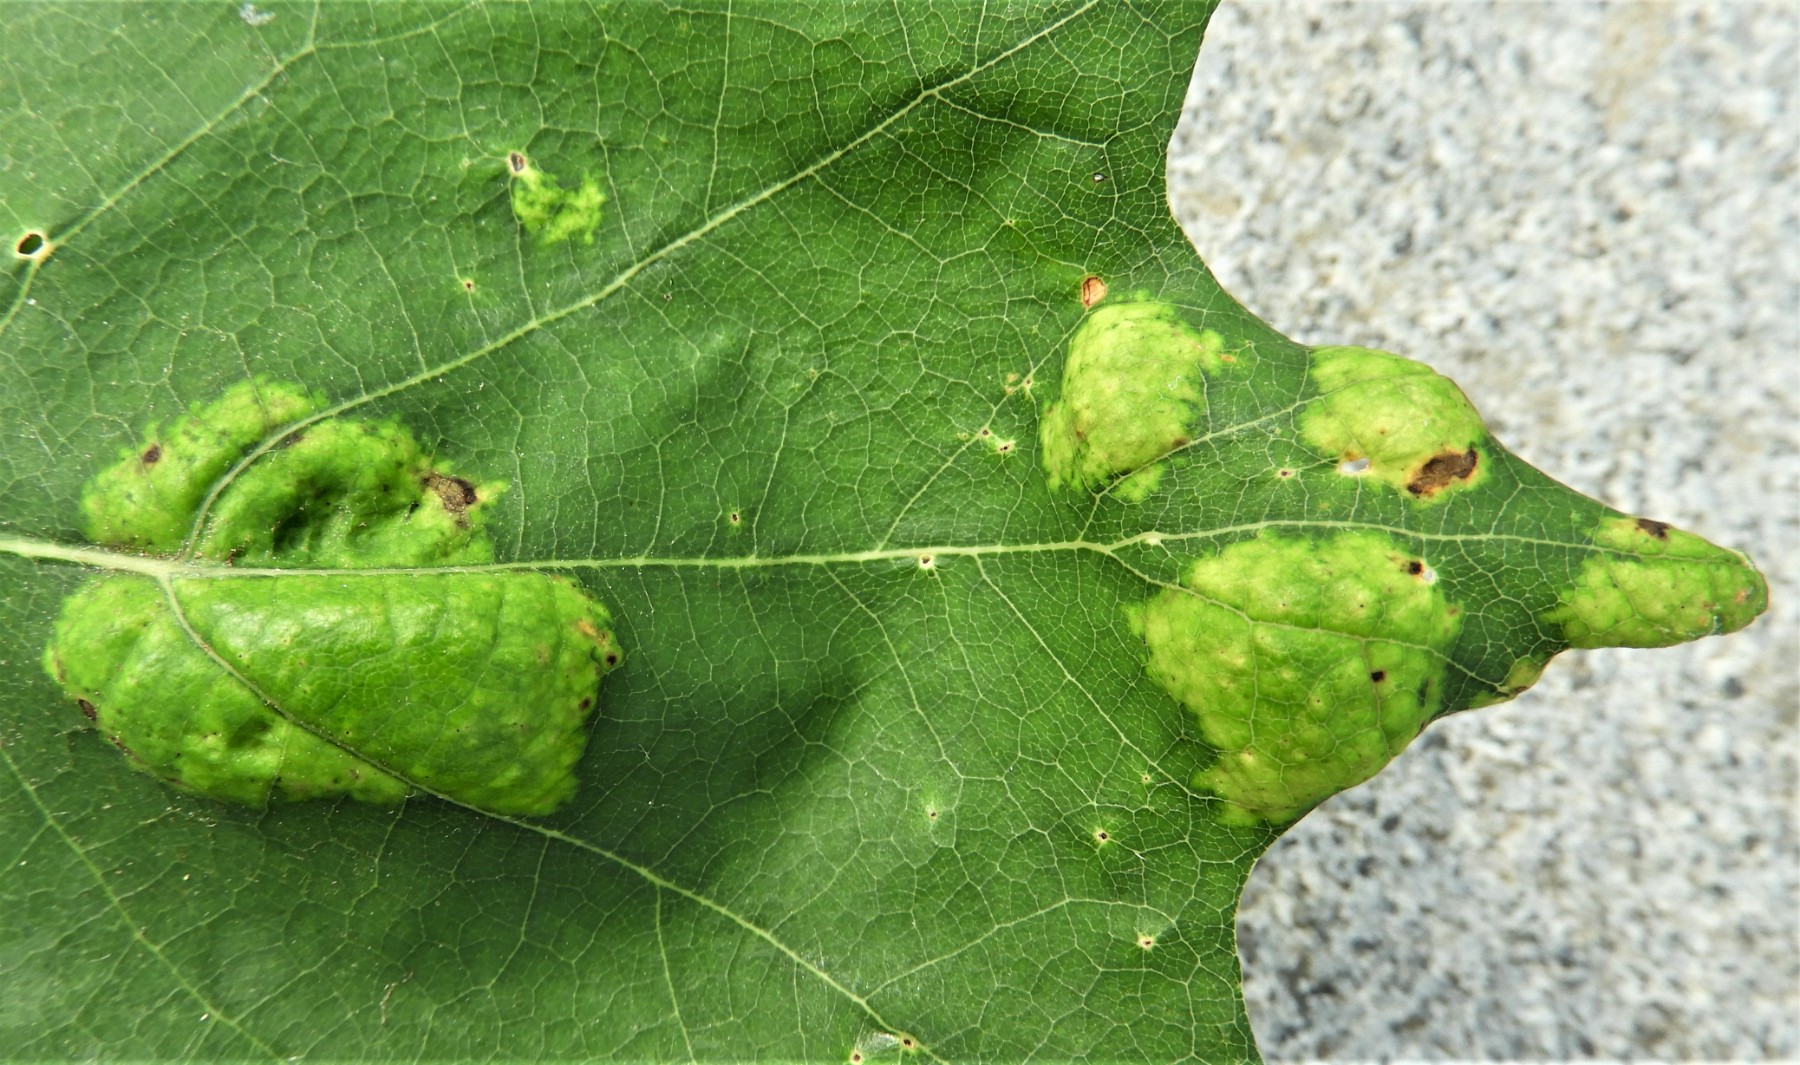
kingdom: Fungi
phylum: Ascomycota
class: Taphrinomycetes
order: Taphrinales
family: Taphrinaceae
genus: Taphrina
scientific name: Taphrina caerulescens
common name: Oak leaf blister
